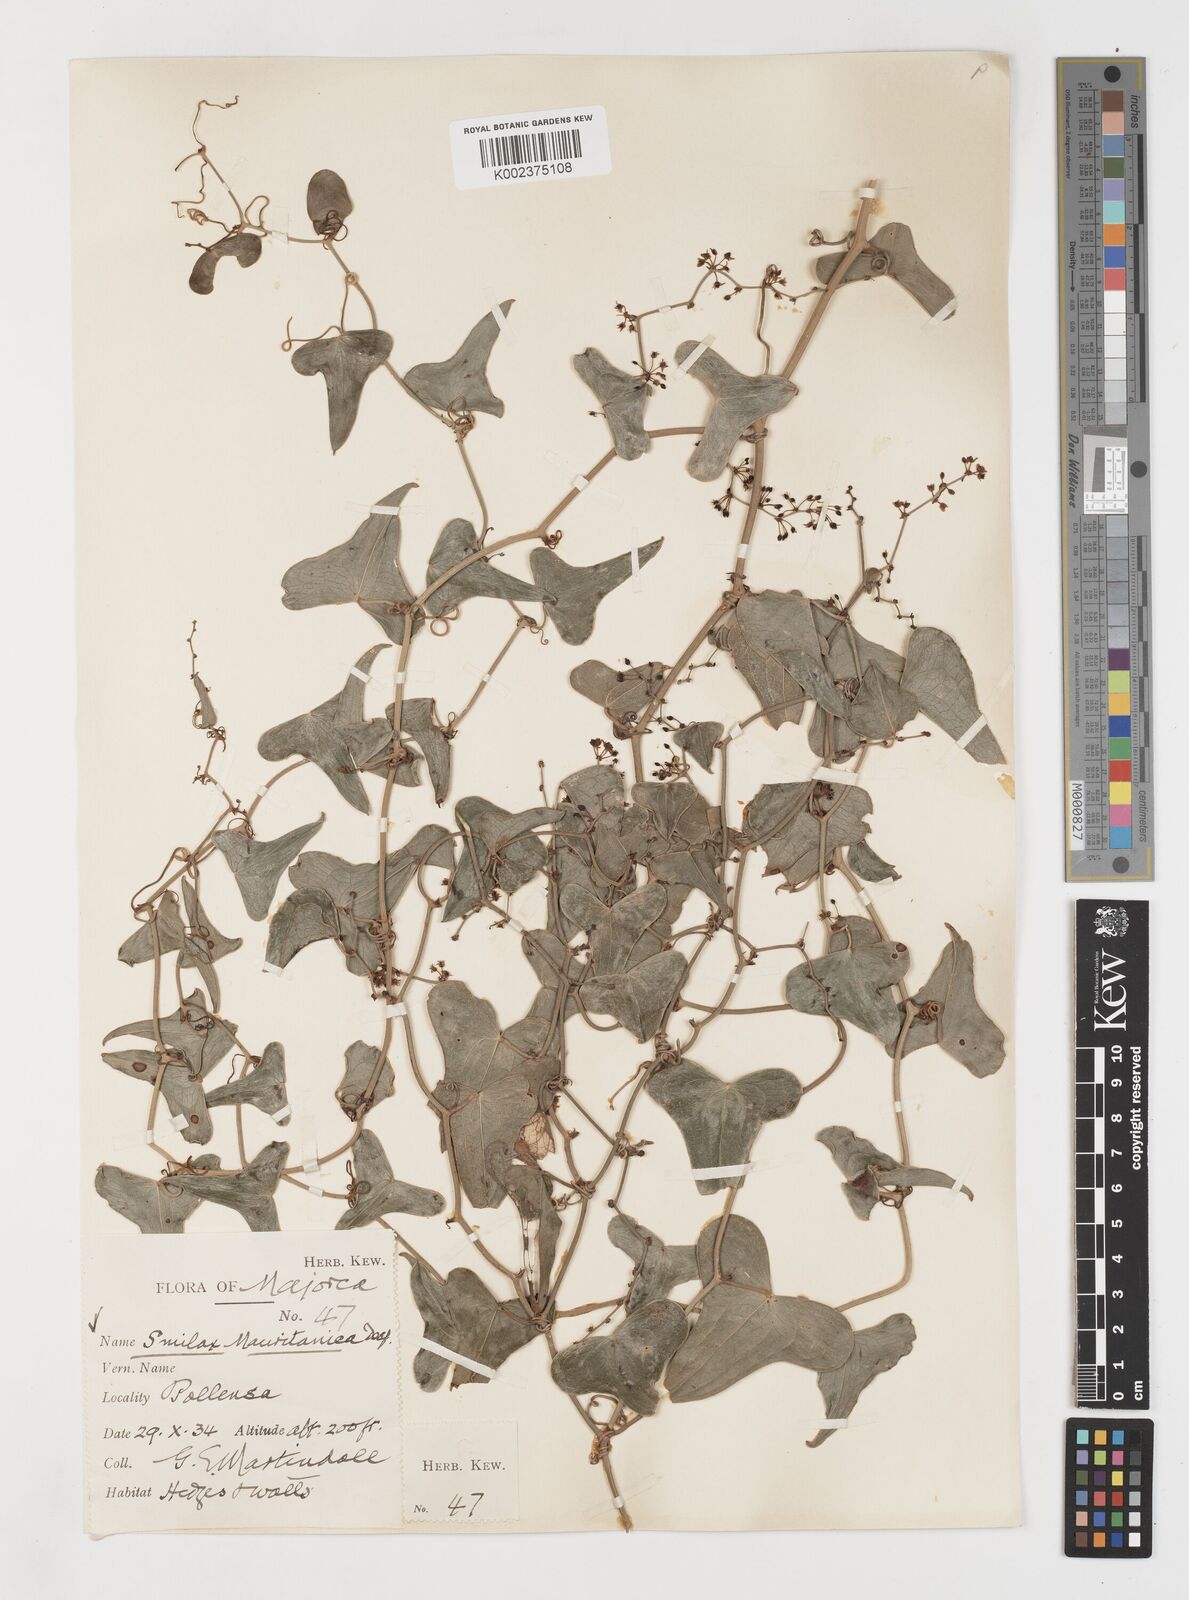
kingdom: Plantae
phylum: Tracheophyta
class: Liliopsida
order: Liliales
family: Smilacaceae
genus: Smilax
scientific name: Smilax aspera
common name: Common smilax
